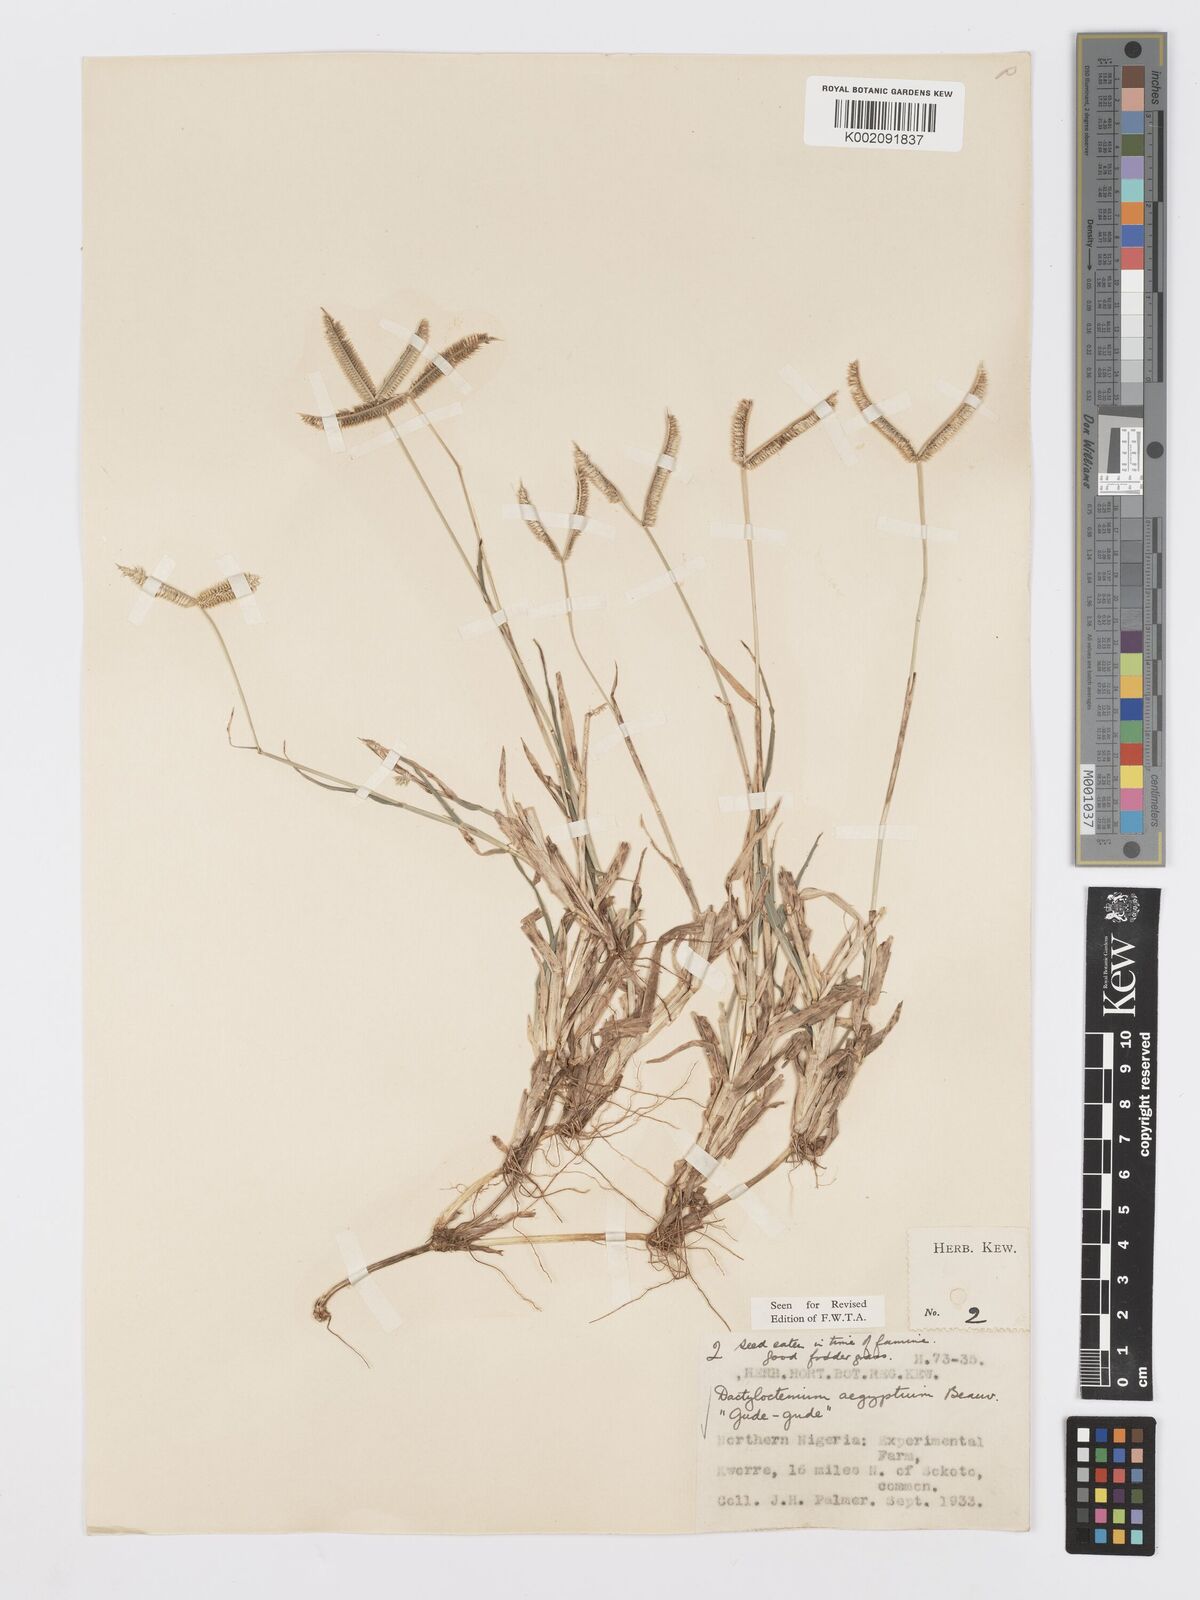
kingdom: Plantae
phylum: Tracheophyta
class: Liliopsida
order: Poales
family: Poaceae
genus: Dactyloctenium
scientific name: Dactyloctenium aegyptium
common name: Egyptian grass
